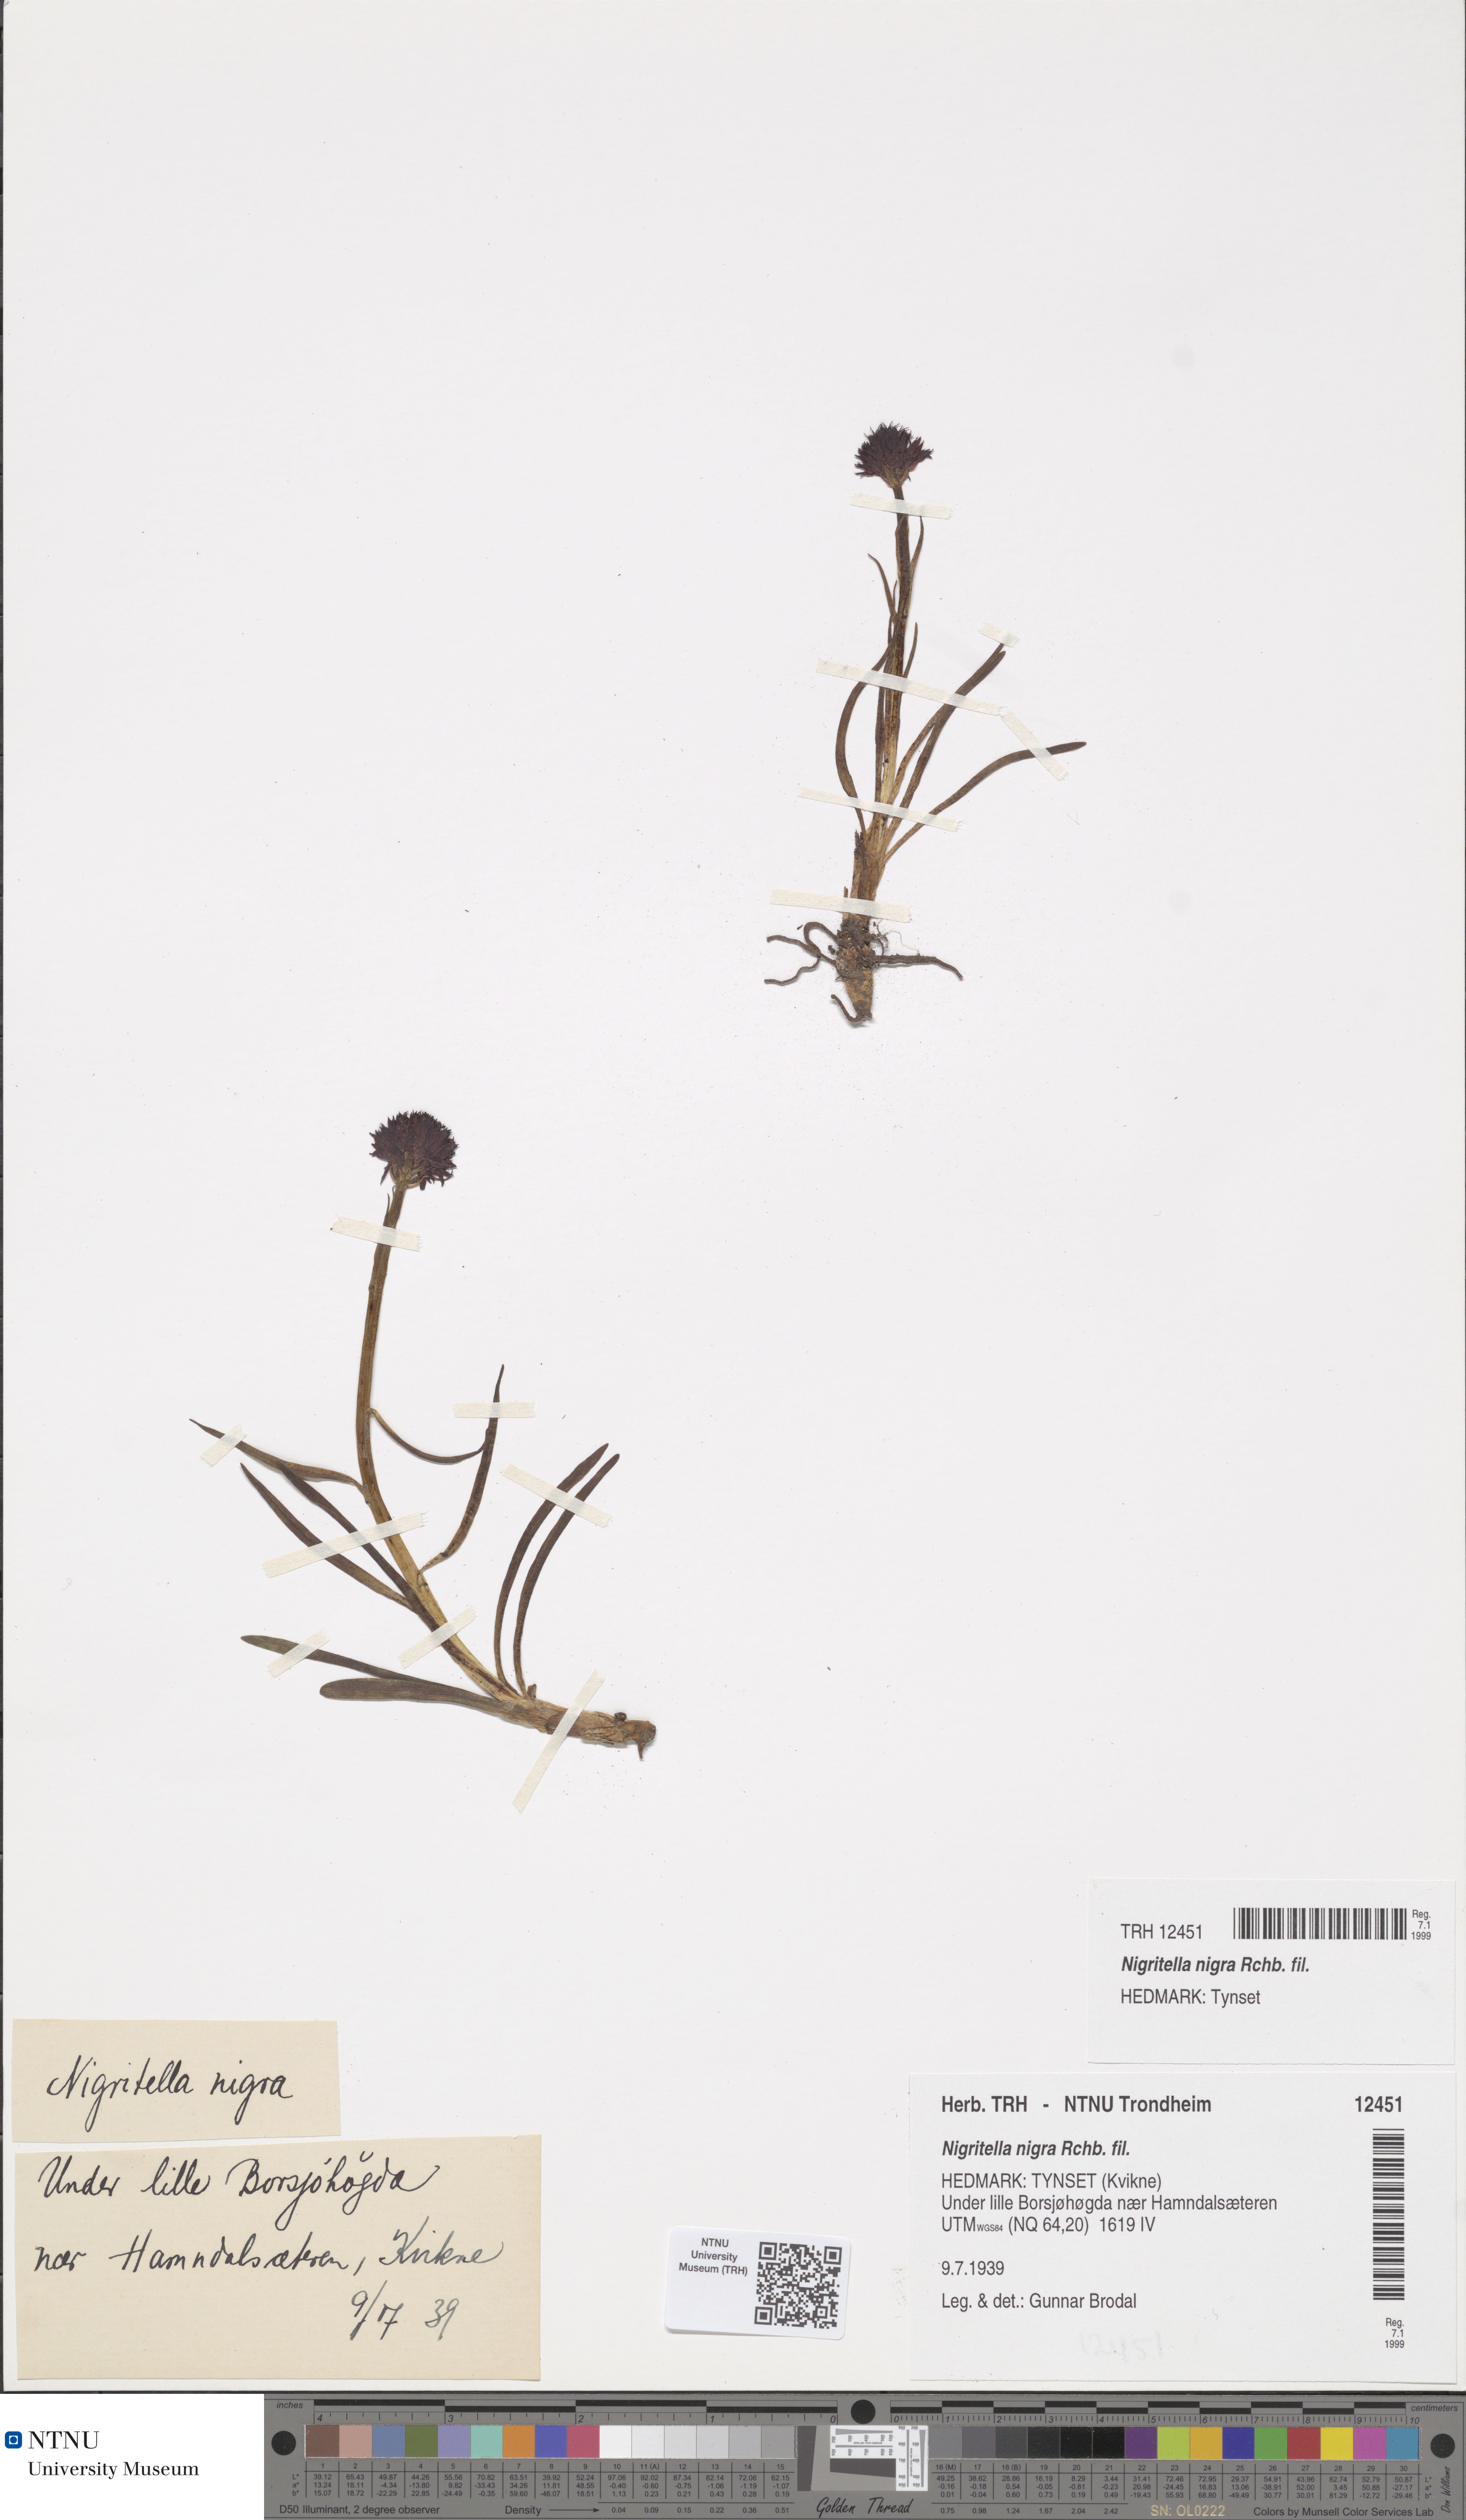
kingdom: Plantae
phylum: Tracheophyta
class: Liliopsida
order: Asparagales
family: Orchidaceae
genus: Gymnadenia
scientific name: Gymnadenia nigra
